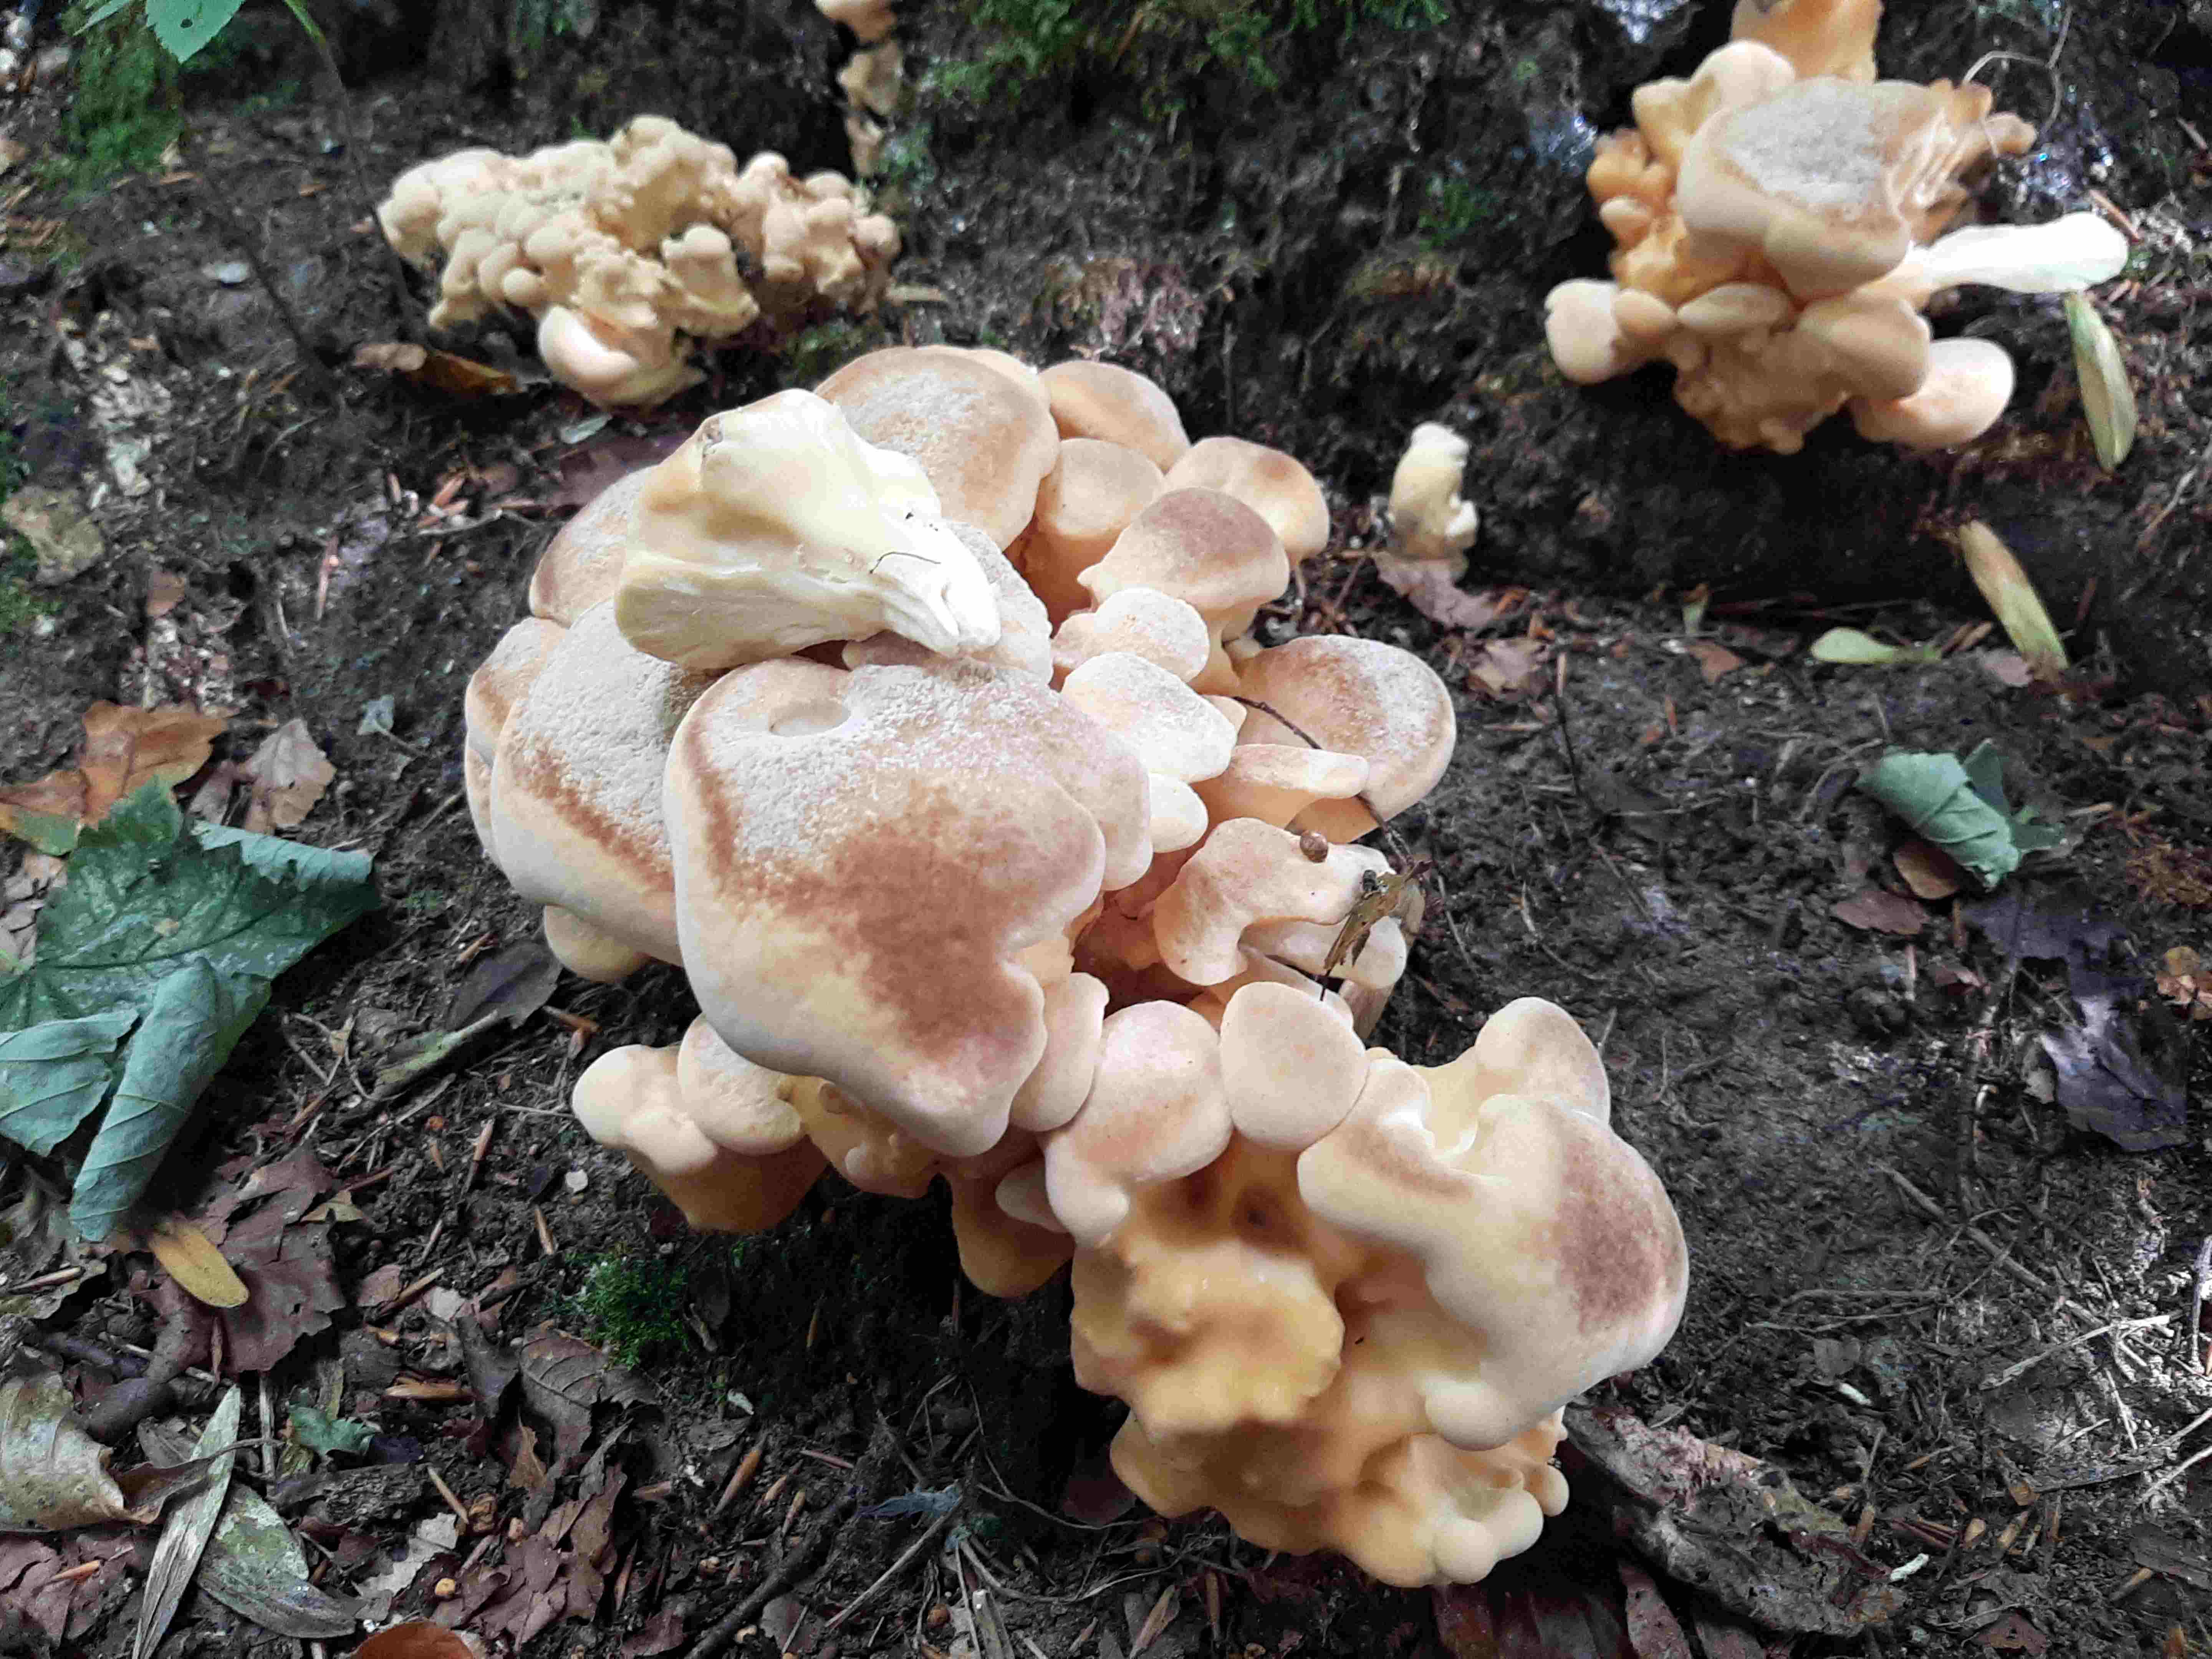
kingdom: Fungi
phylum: Basidiomycota
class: Agaricomycetes
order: Polyporales
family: Meripilaceae
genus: Meripilus
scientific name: Meripilus giganteus
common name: kæmpeporesvamp
